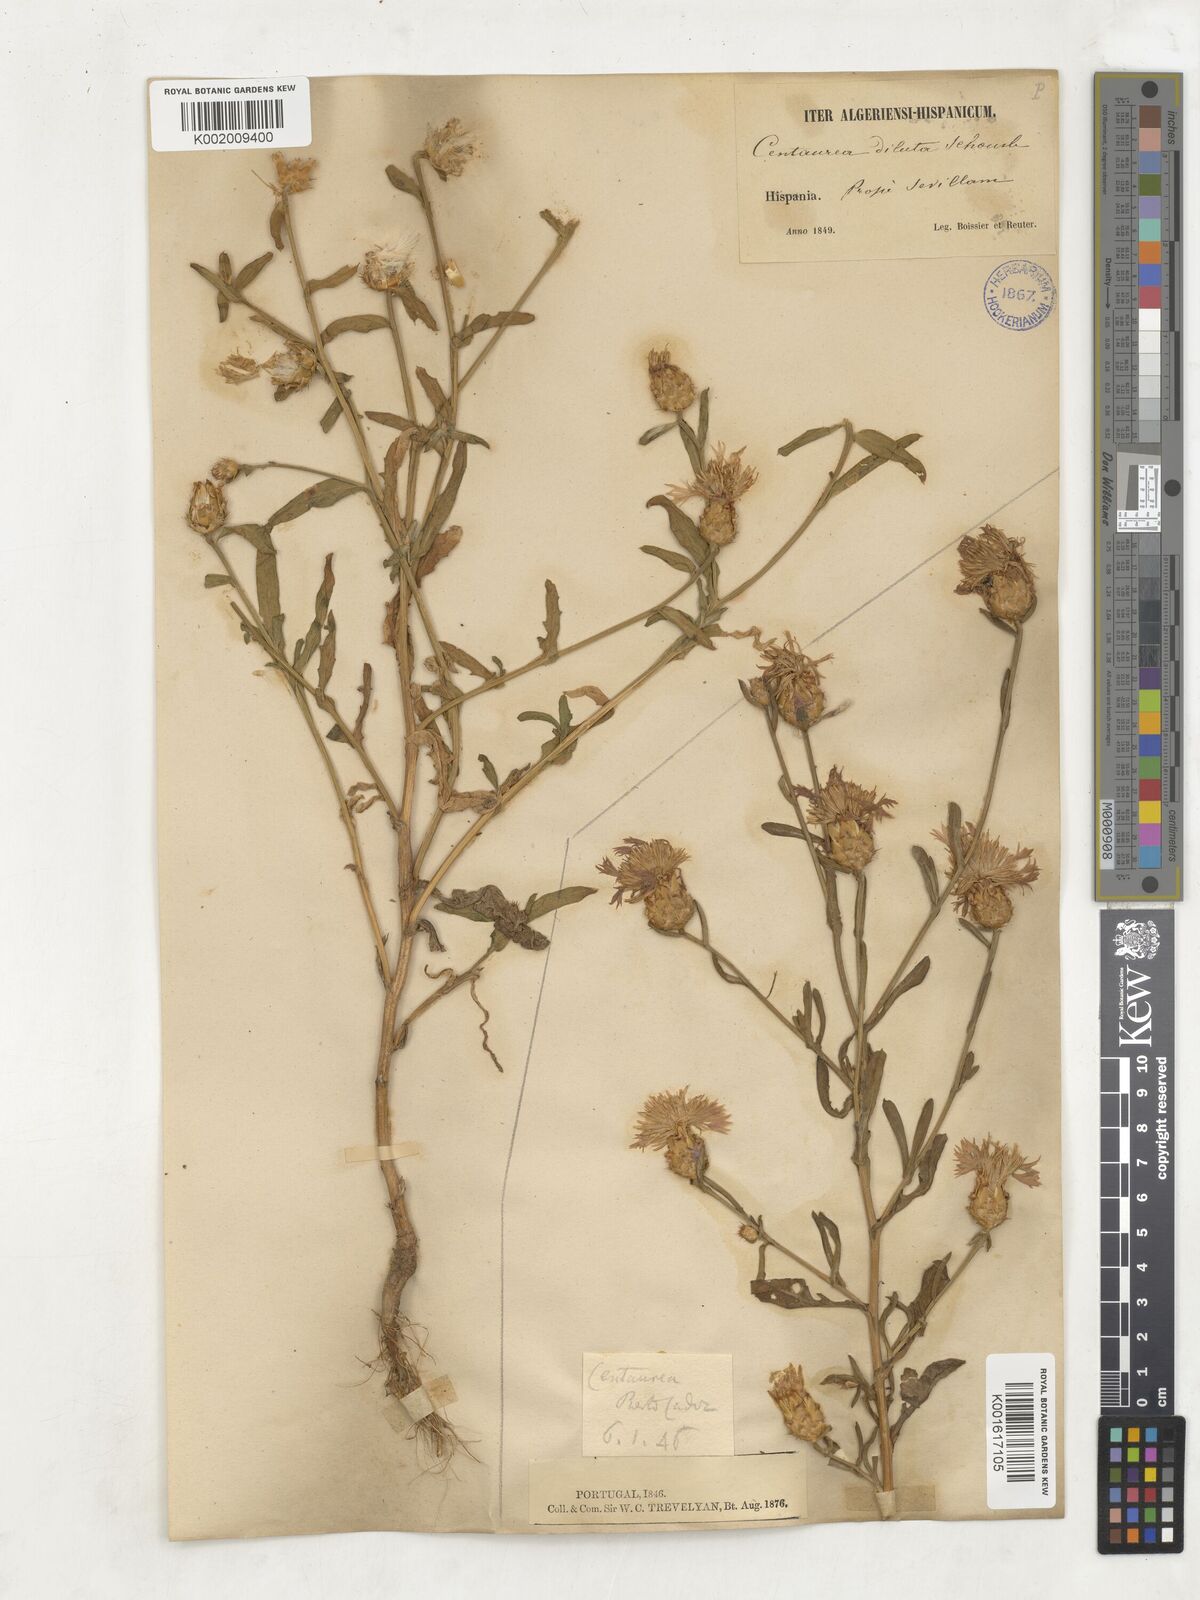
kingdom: Plantae
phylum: Tracheophyta
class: Magnoliopsida
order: Asterales
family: Asteraceae
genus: Centaurea
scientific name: Centaurea
